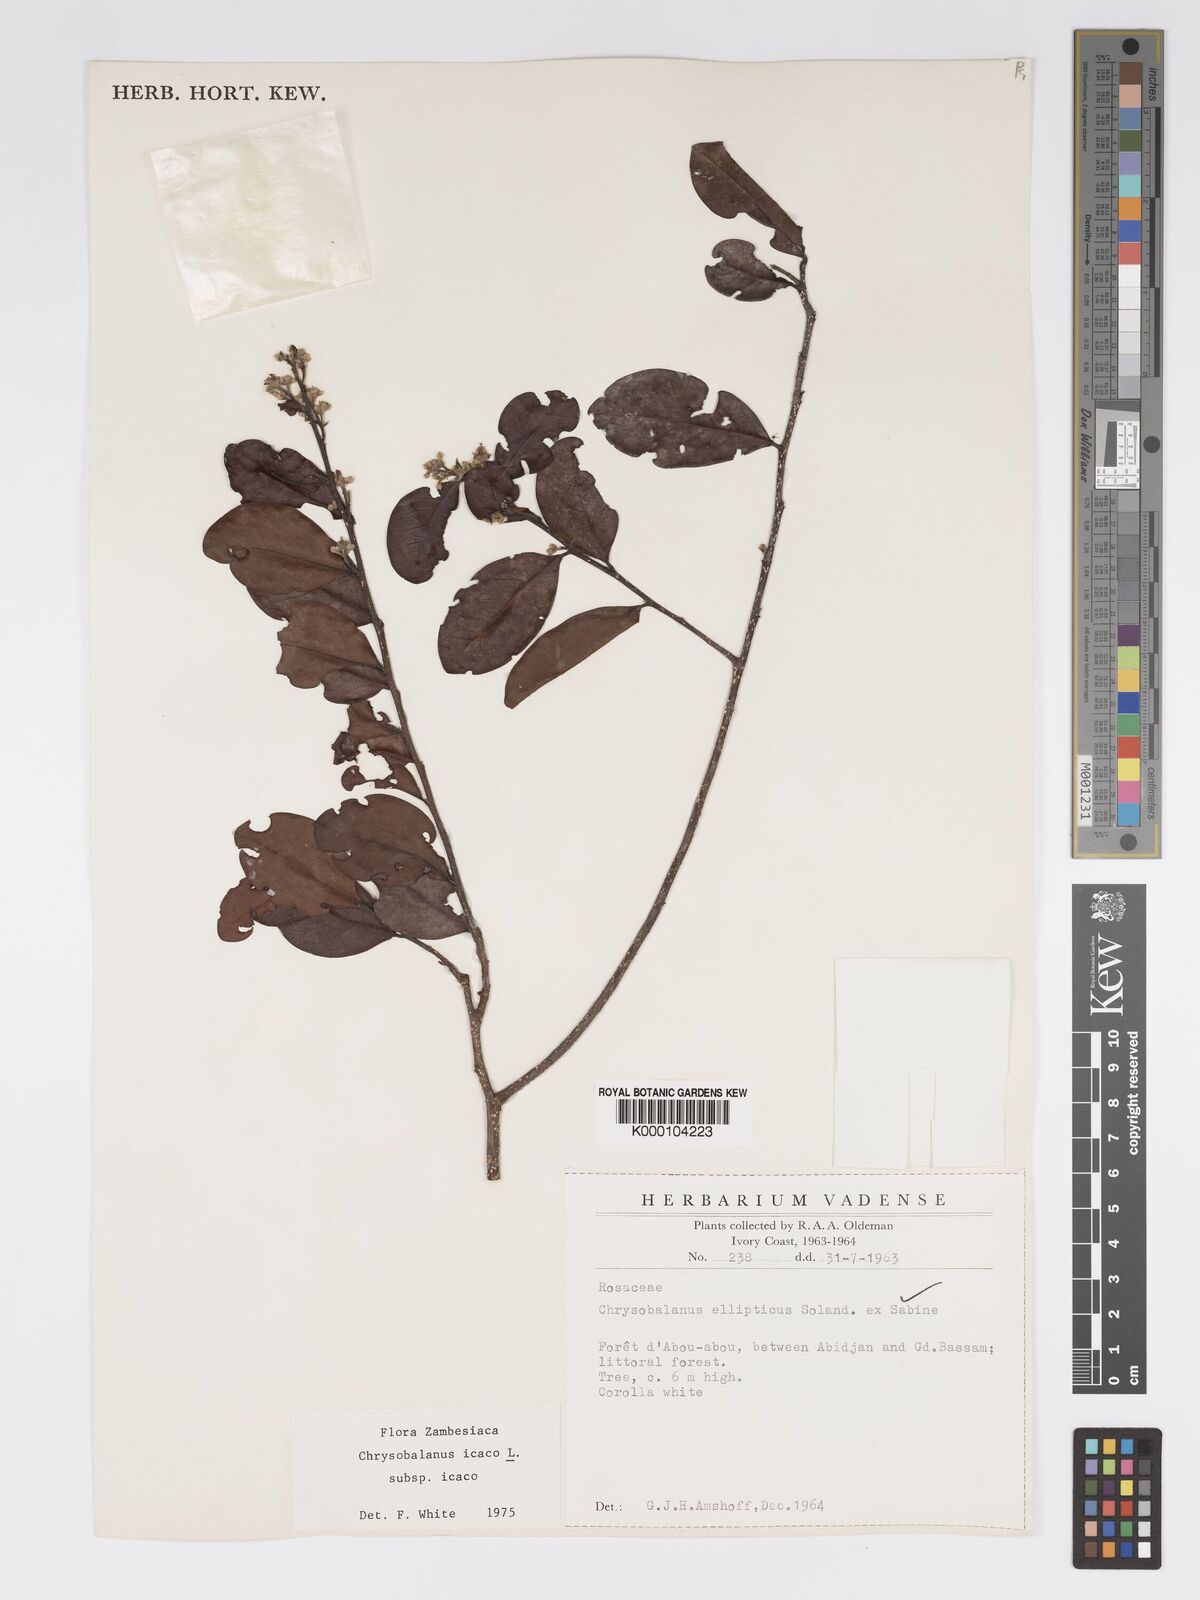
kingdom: Plantae
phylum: Tracheophyta
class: Magnoliopsida
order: Malpighiales
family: Chrysobalanaceae
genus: Chrysobalanus
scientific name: Chrysobalanus icaco
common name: Coco plum
